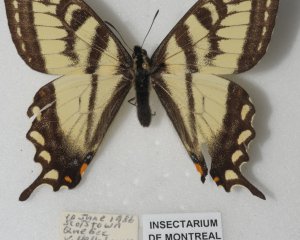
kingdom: Animalia
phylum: Arthropoda
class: Insecta
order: Lepidoptera
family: Papilionidae
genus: Pterourus
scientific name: Pterourus canadensis
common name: Canadian Tiger Swallowtail
